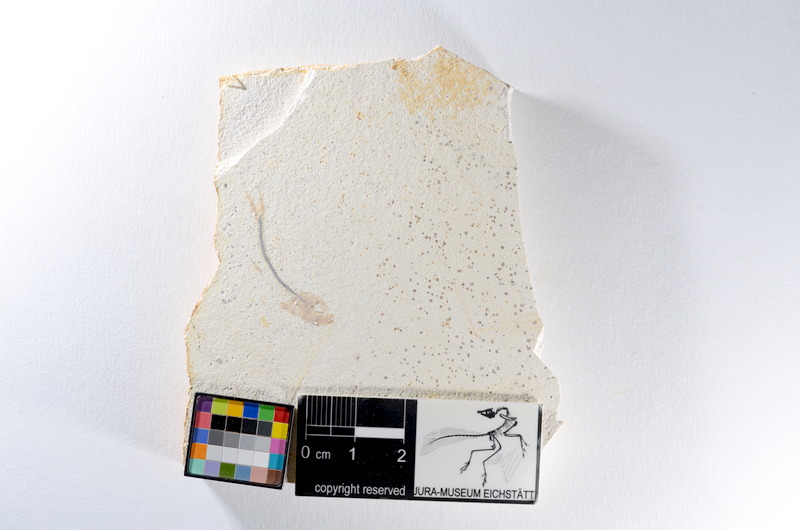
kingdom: Animalia
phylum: Chordata
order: Salmoniformes
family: Orthogonikleithridae
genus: Orthogonikleithrus
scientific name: Orthogonikleithrus hoelli
